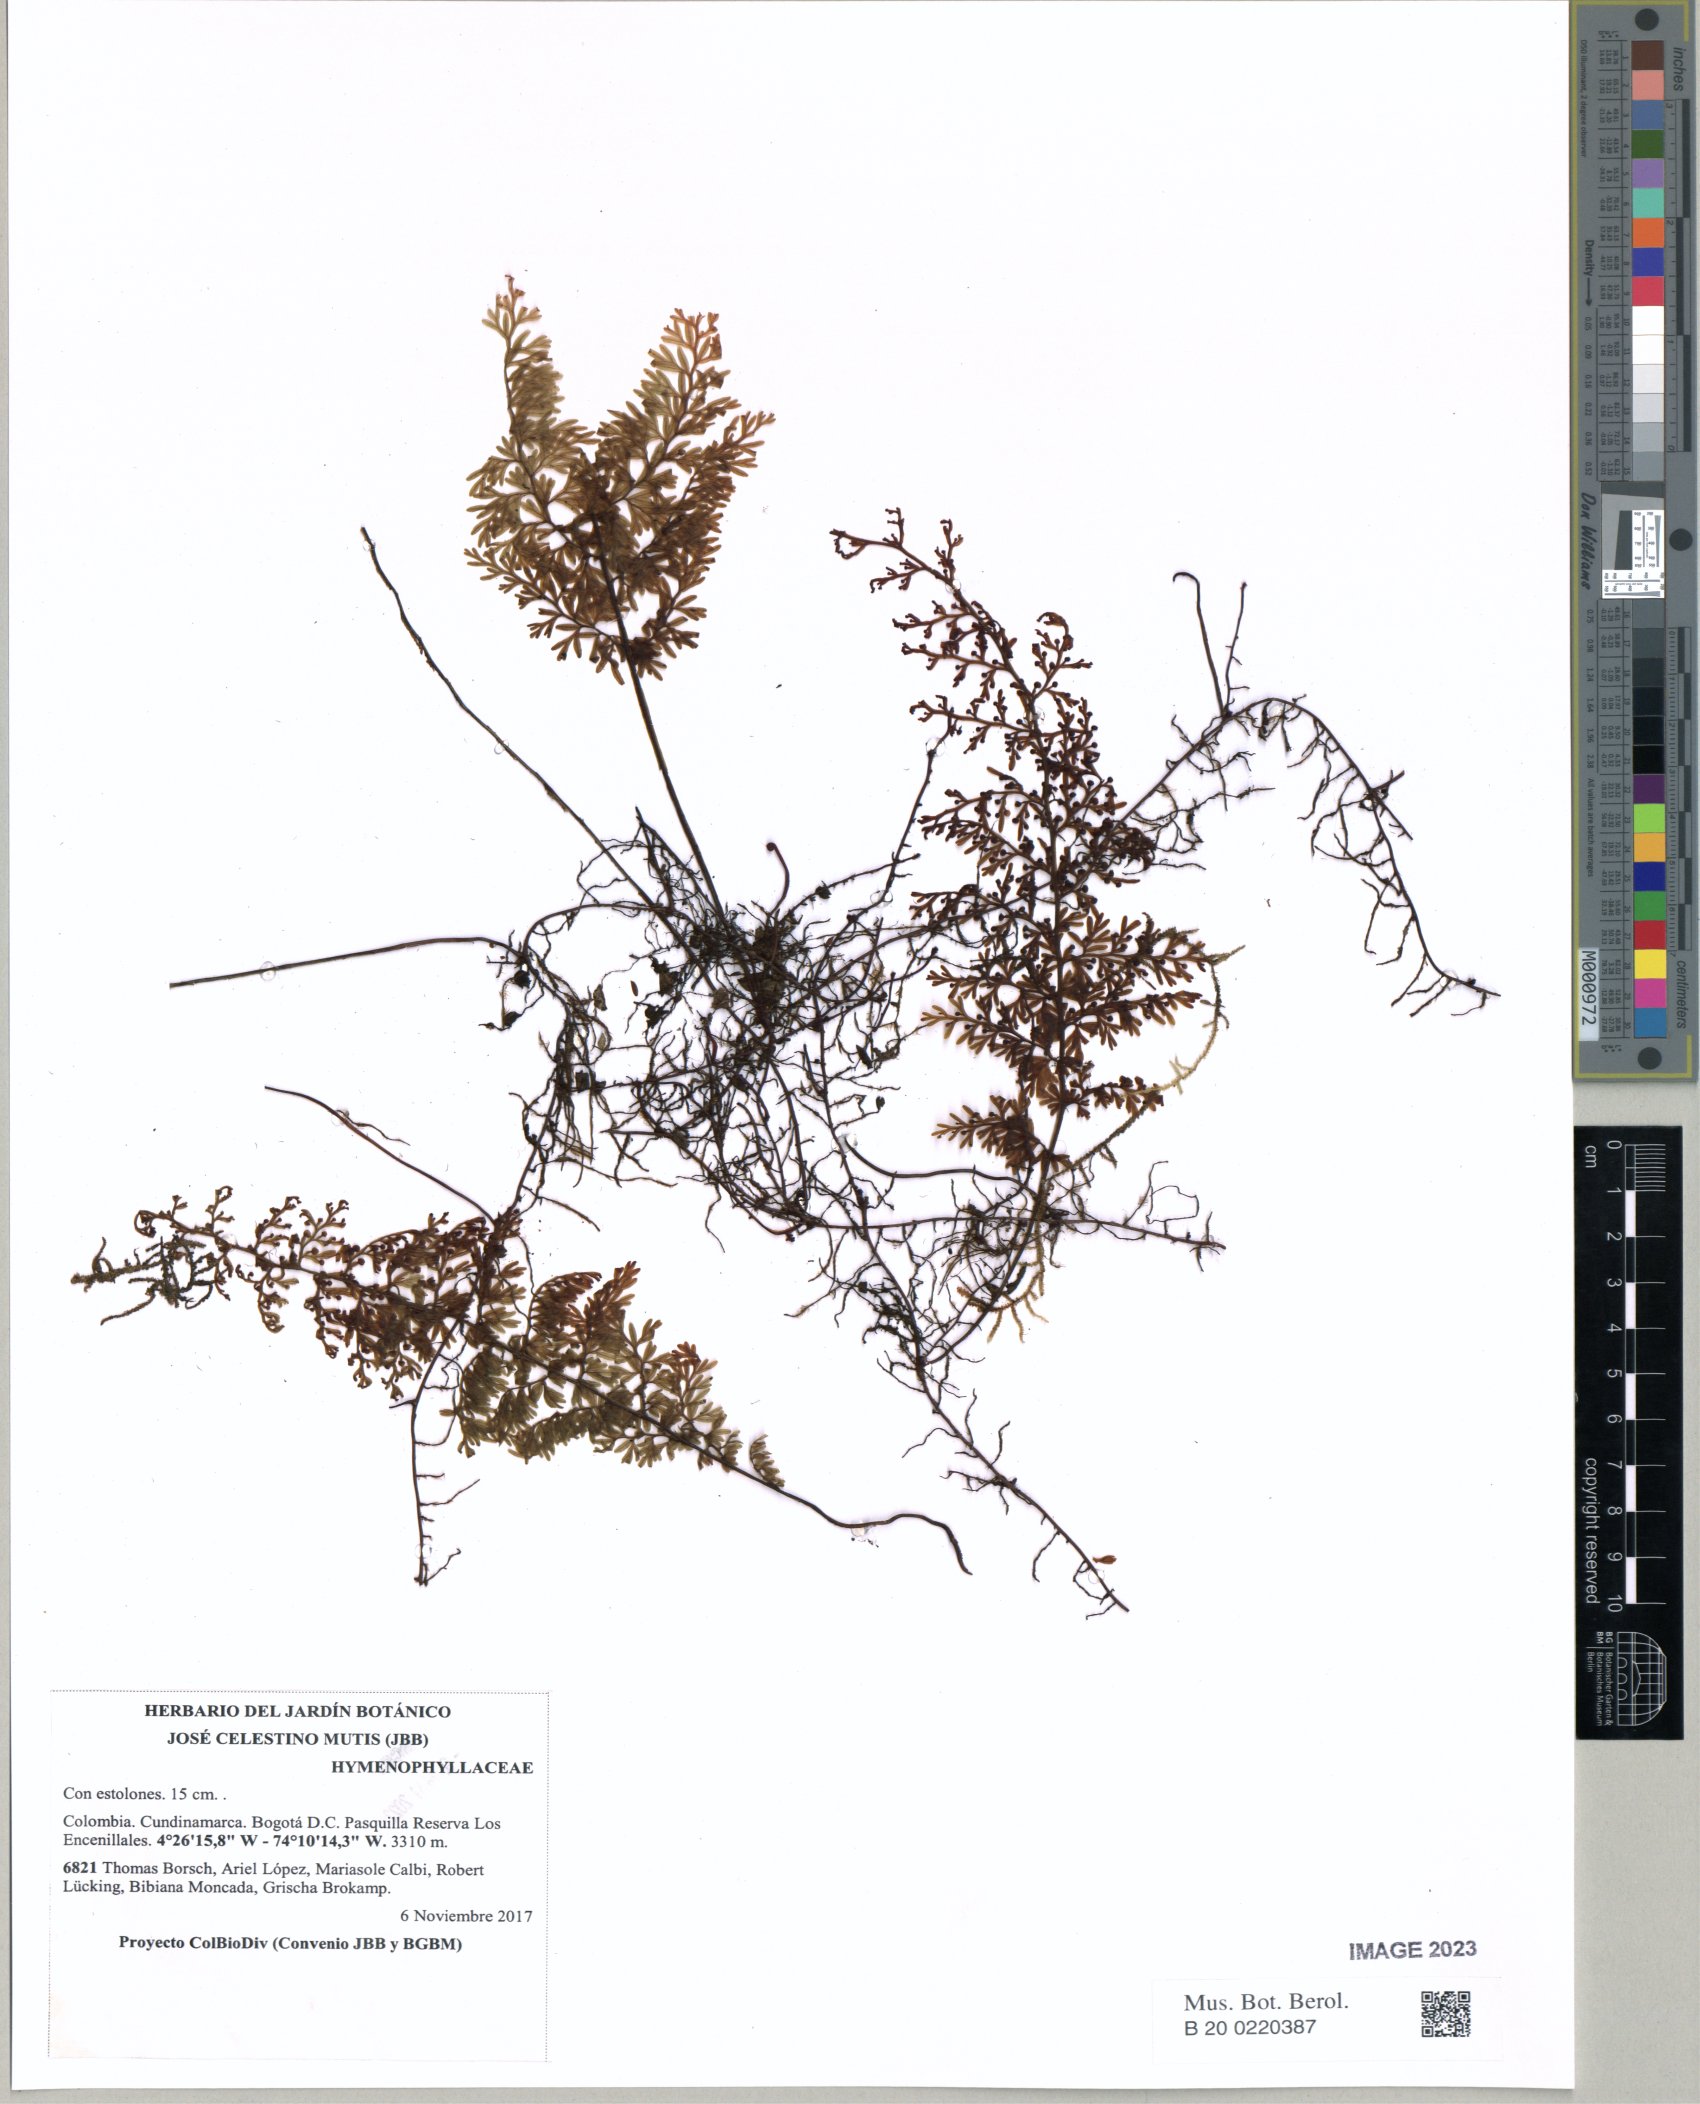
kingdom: Plantae
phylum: Tracheophyta
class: Polypodiopsida
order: Hymenophyllales
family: Hymenophyllaceae
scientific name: Hymenophyllaceae
